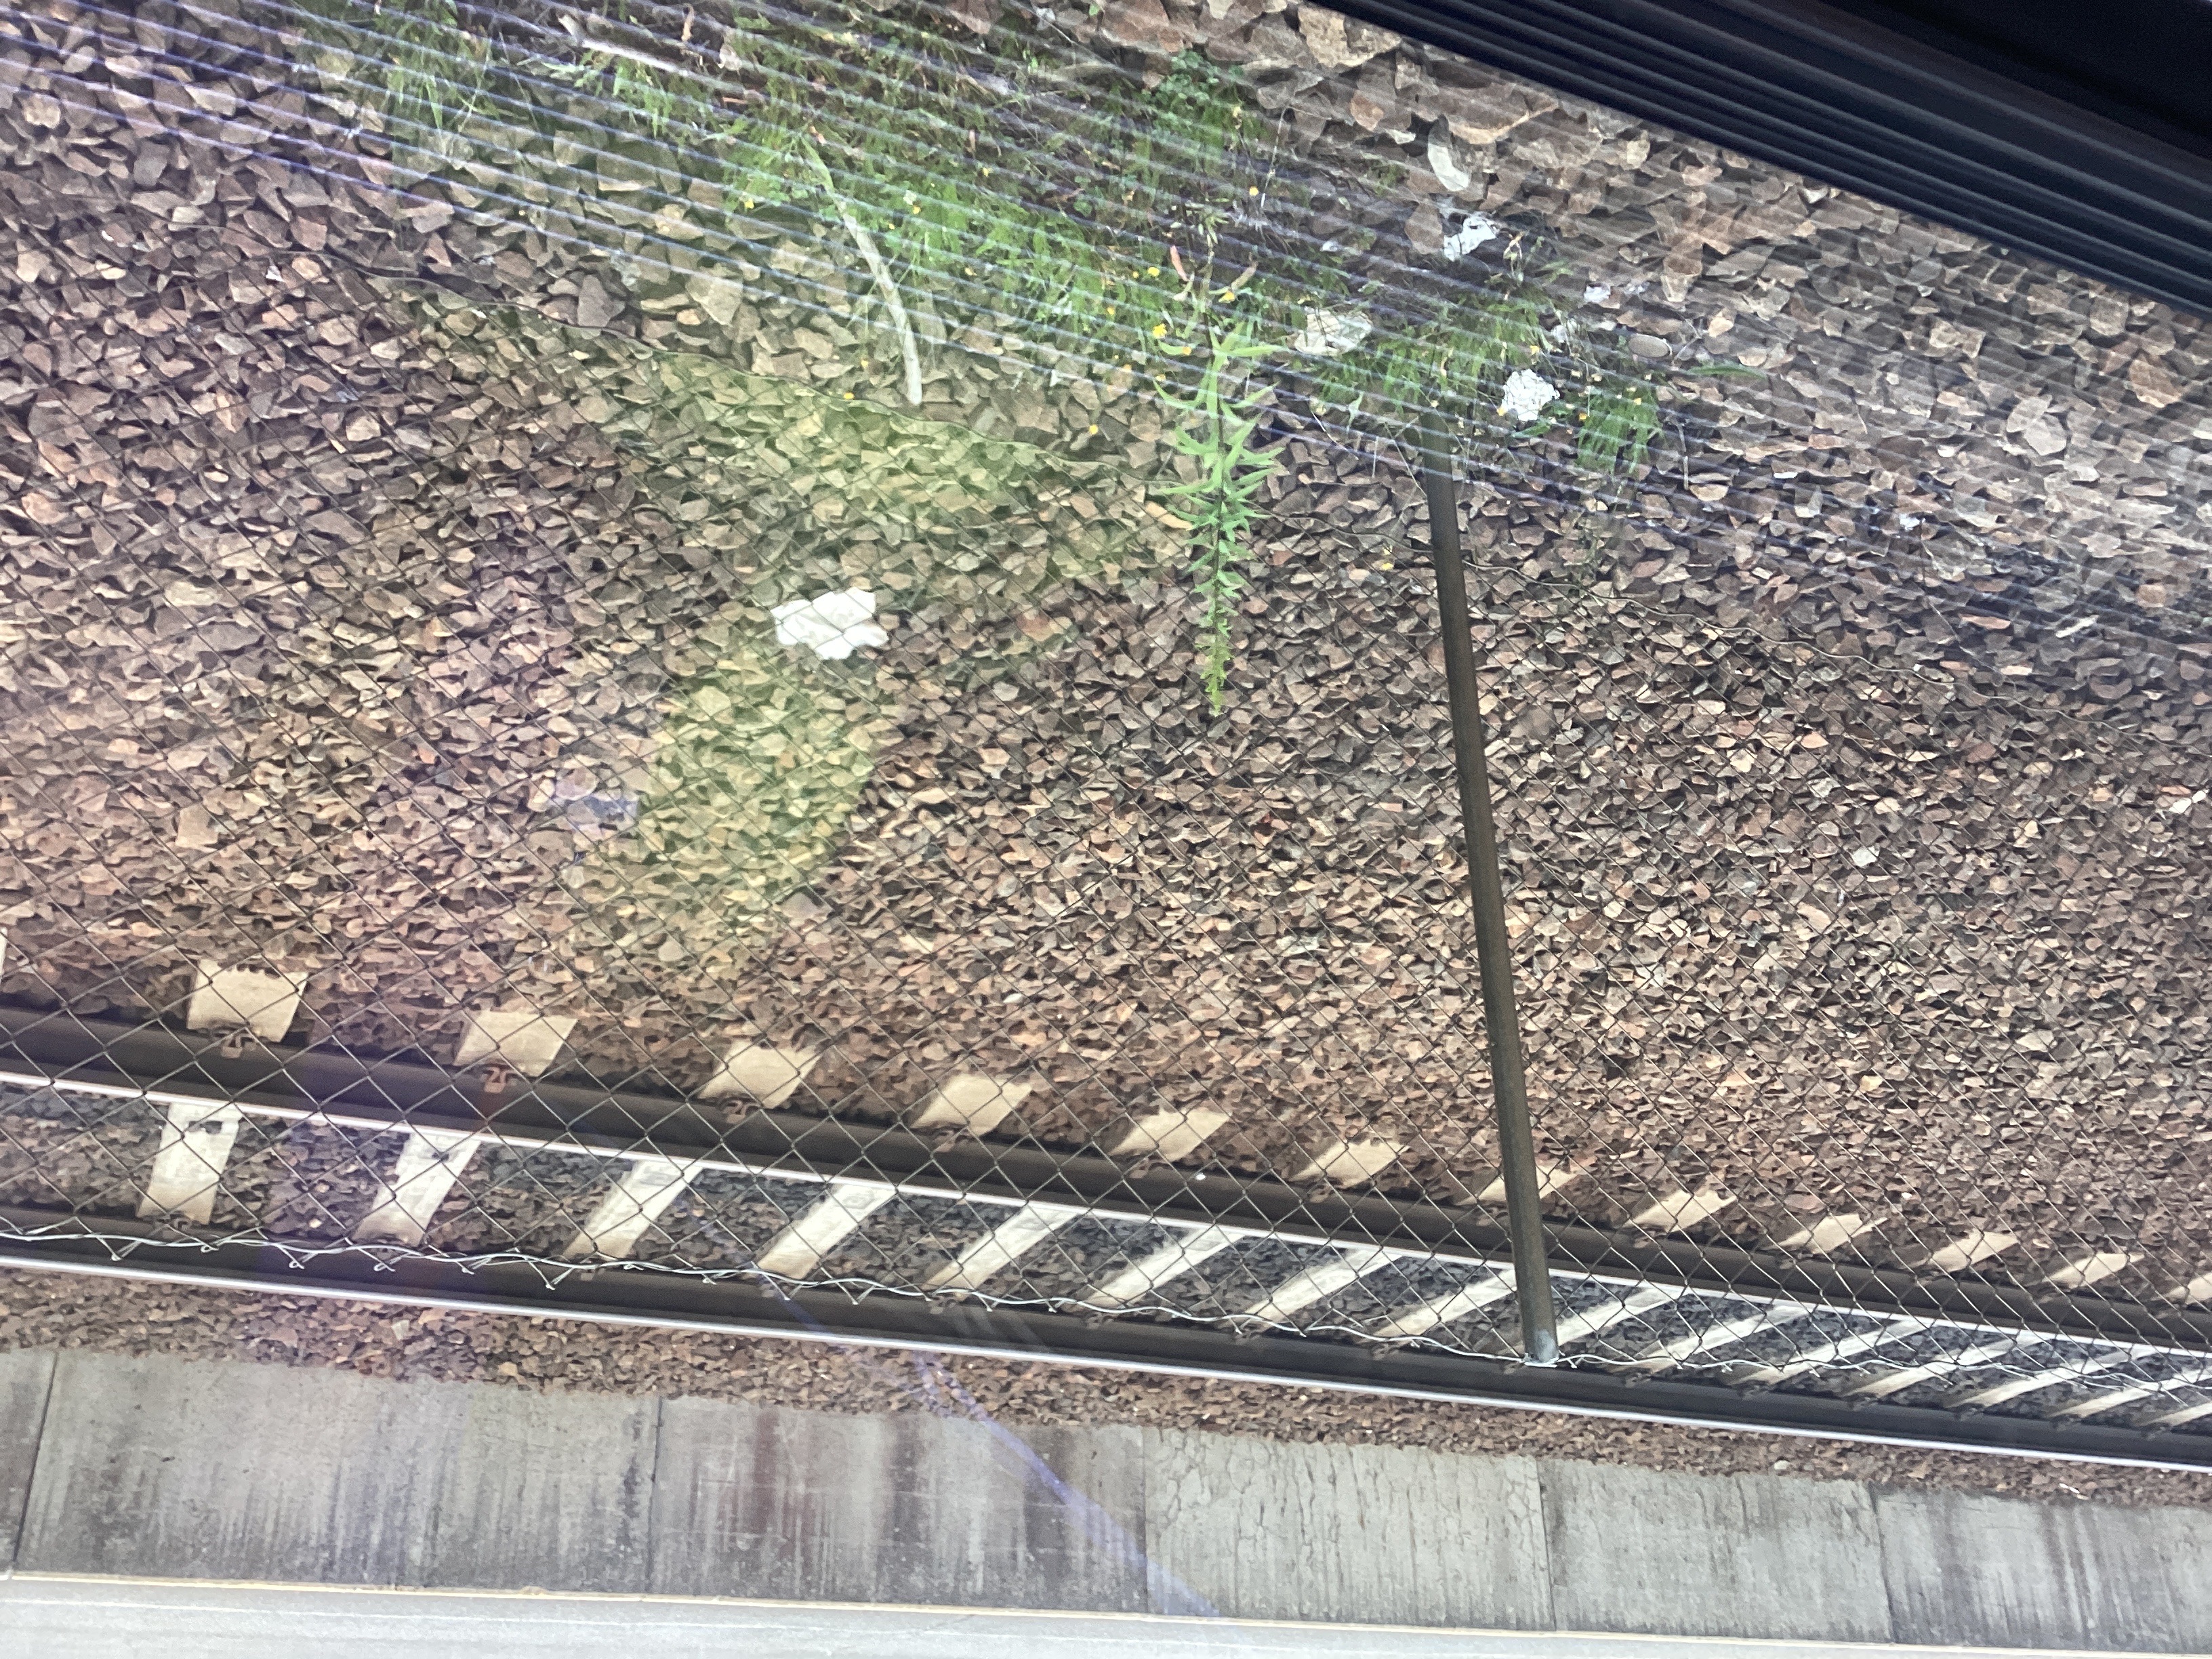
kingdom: Plantae
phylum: Tracheophyta
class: Magnoliopsida
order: Asterales
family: Asteraceae
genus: Solidago
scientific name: Solidago canadensis
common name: kanadagullris
